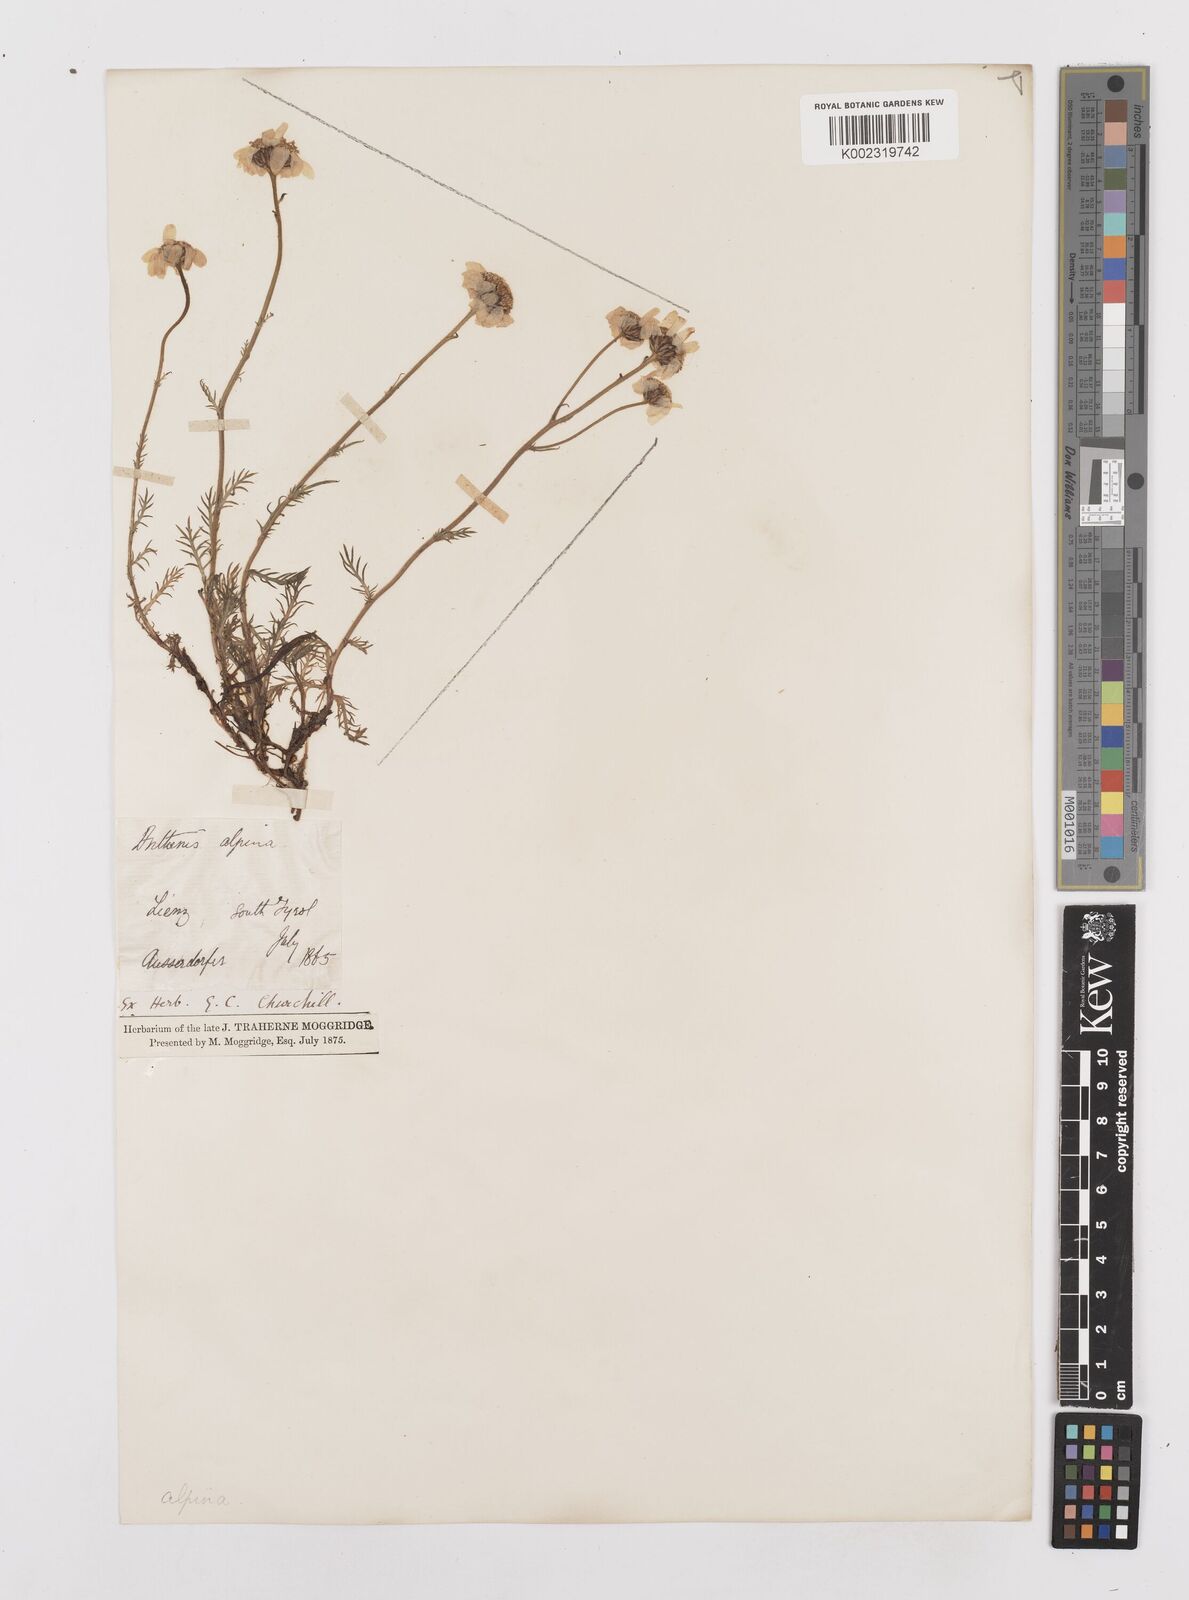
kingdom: Plantae
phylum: Tracheophyta
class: Magnoliopsida
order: Asterales
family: Asteraceae
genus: Achillea
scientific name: Achillea oxyloba
